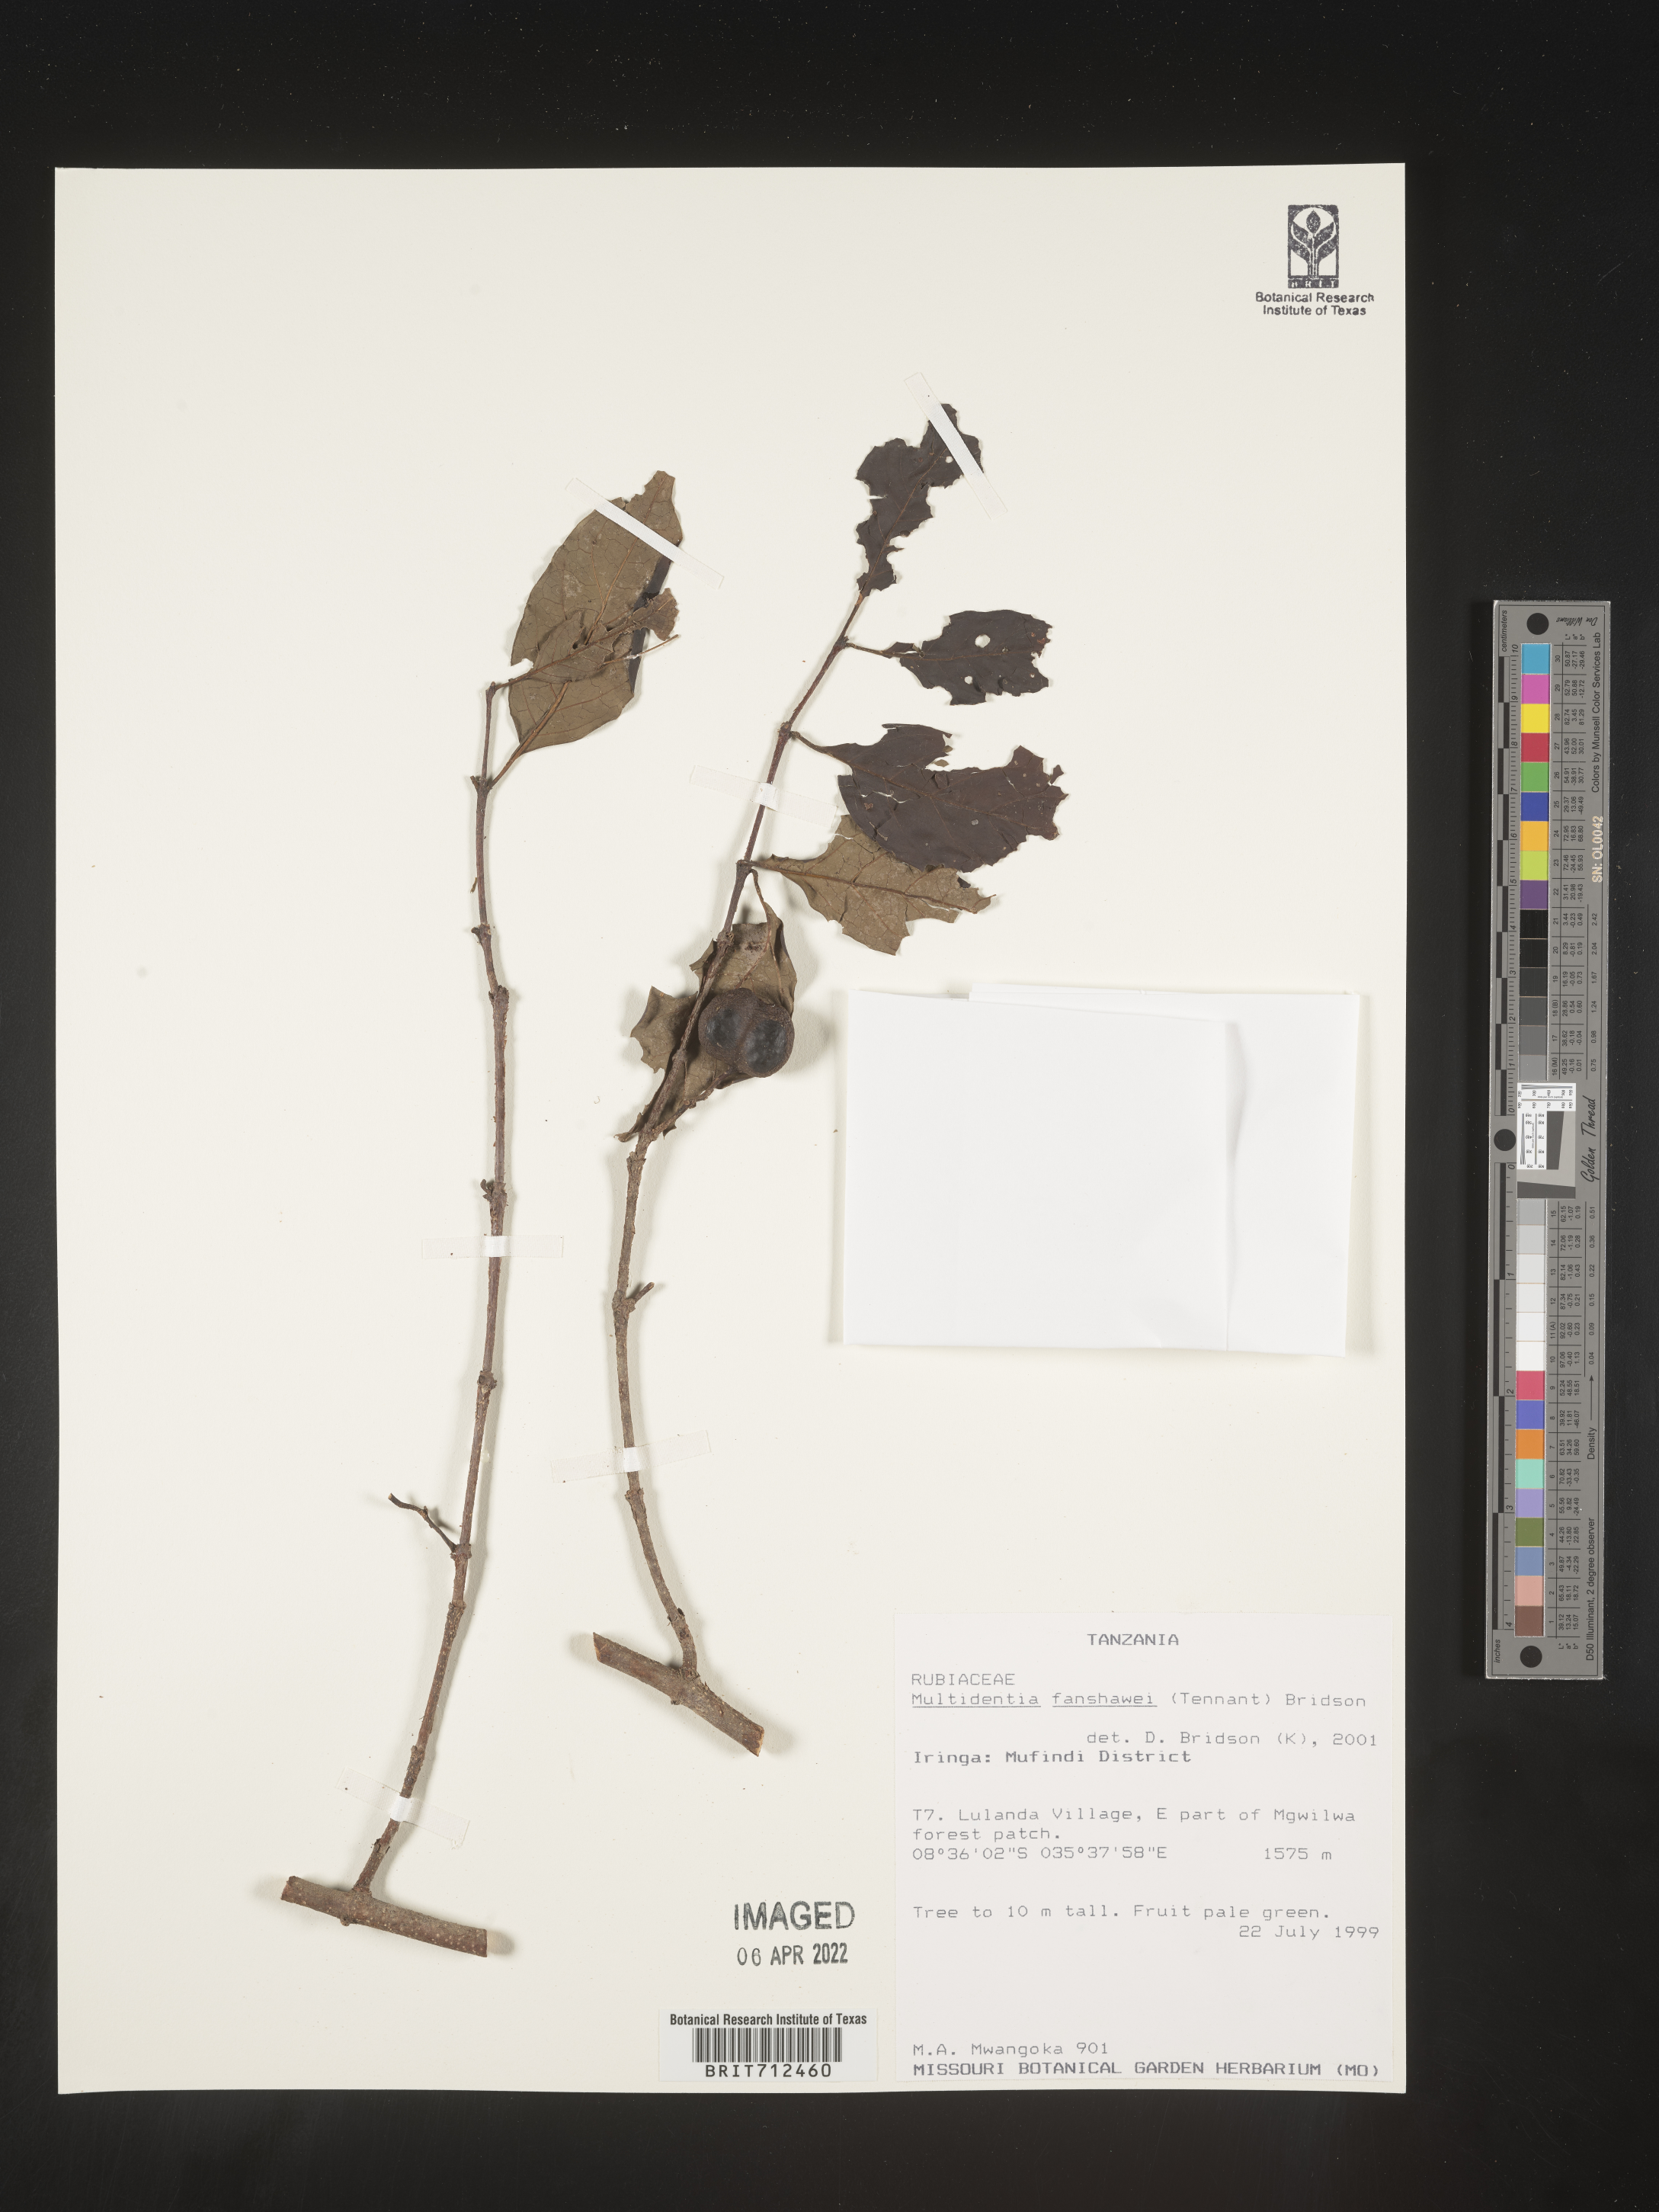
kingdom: Plantae
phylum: Tracheophyta
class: Magnoliopsida
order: Gentianales
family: Rubiaceae
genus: Multidentia
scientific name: Multidentia
